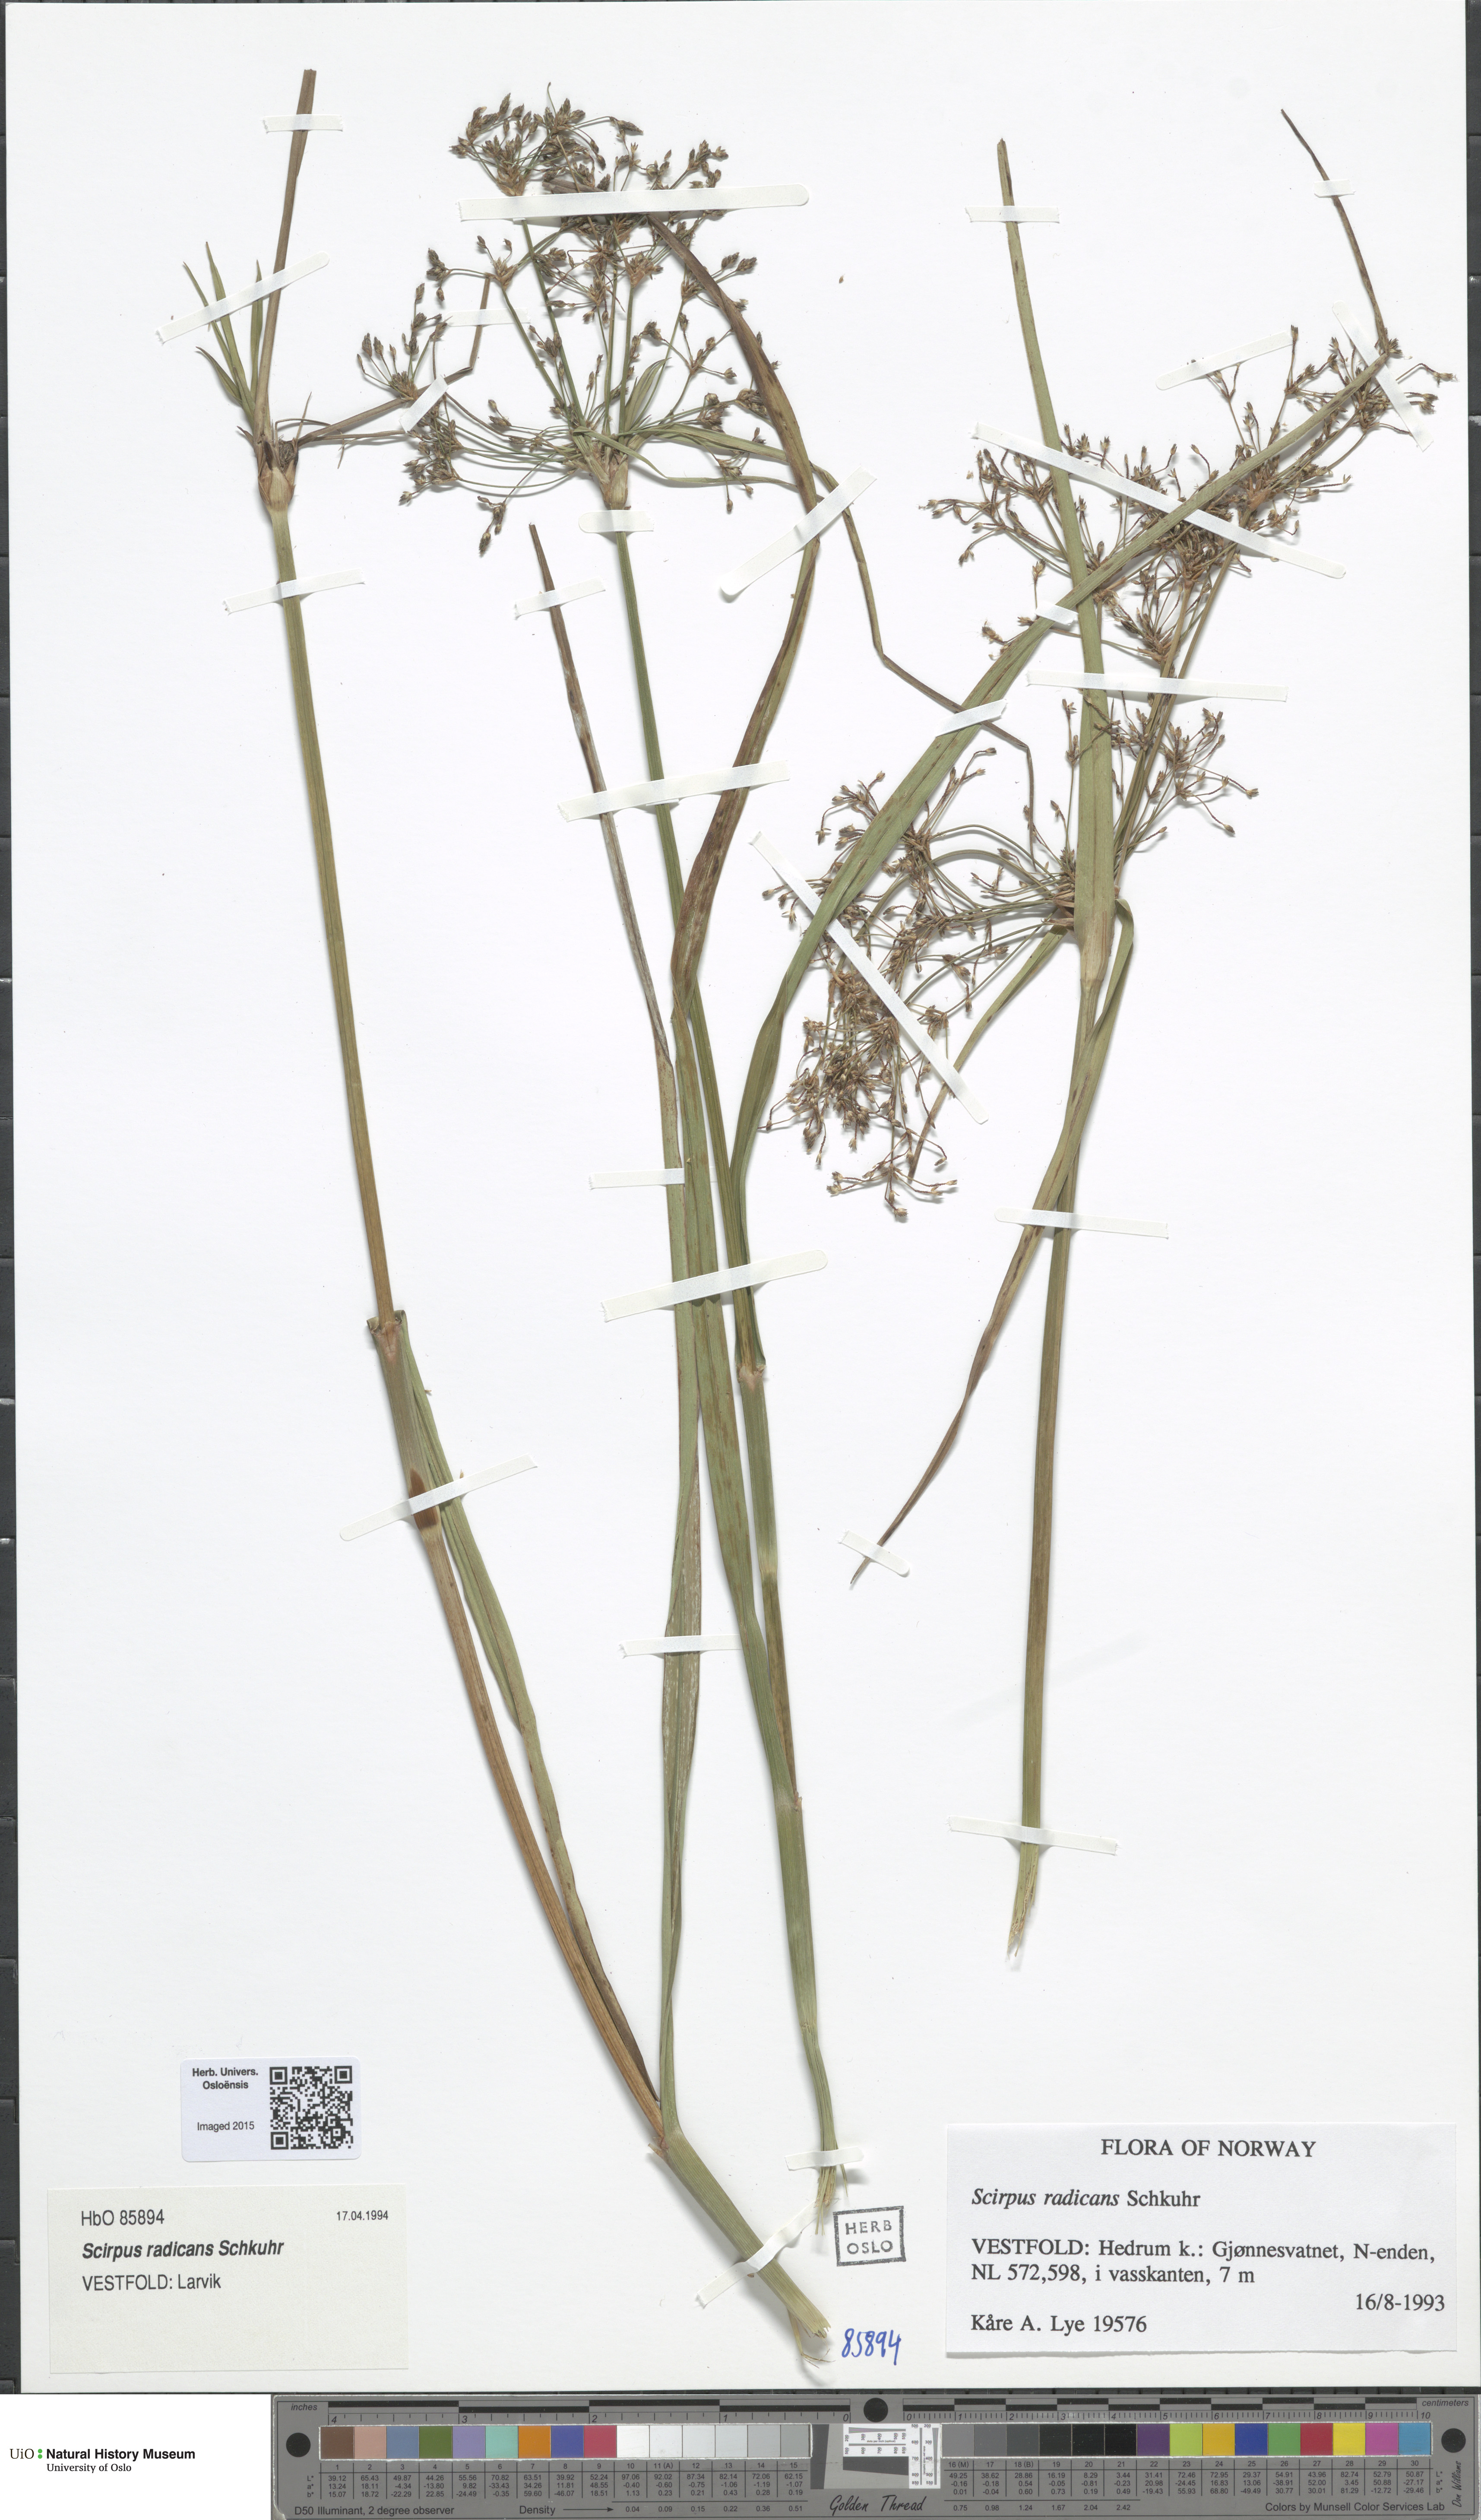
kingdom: Plantae
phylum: Tracheophyta
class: Liliopsida
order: Poales
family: Cyperaceae
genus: Scirpus
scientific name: Scirpus radicans
